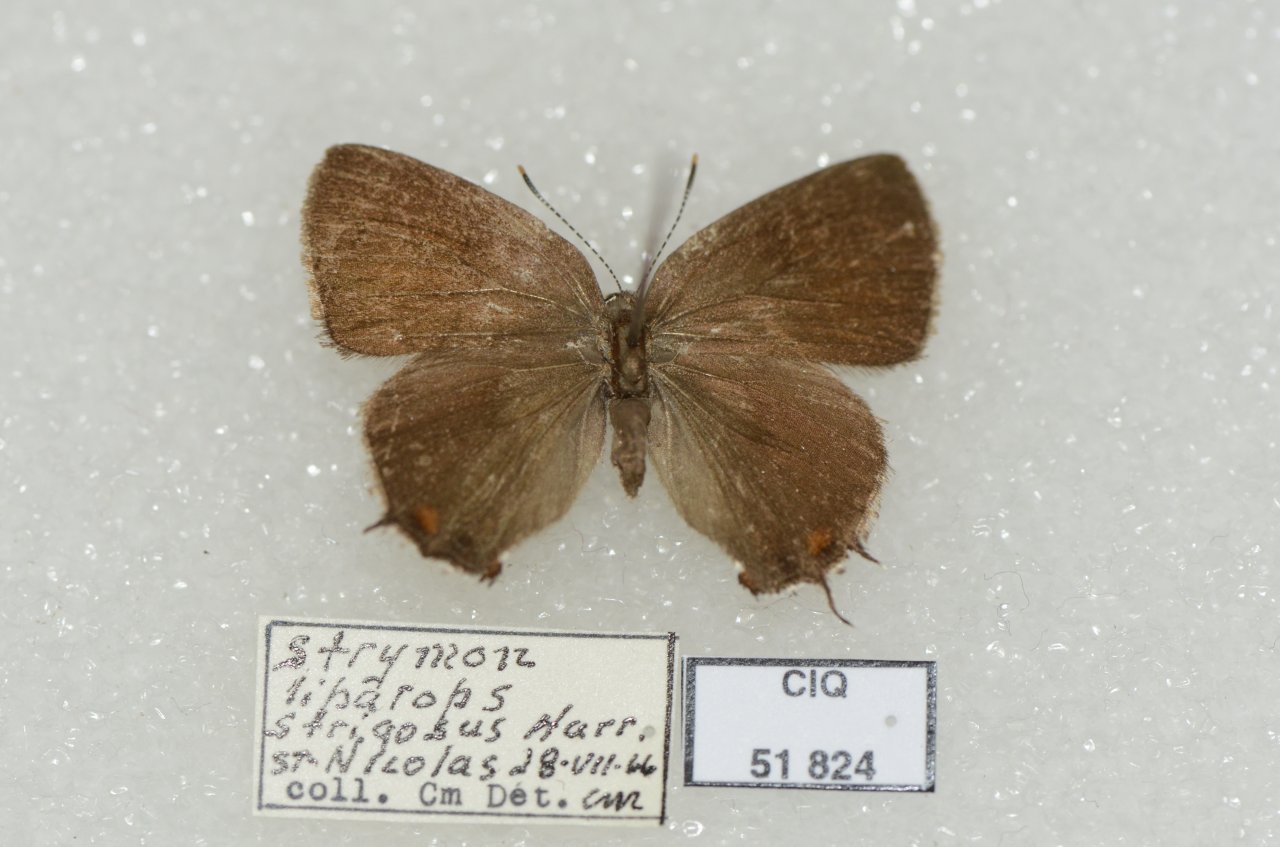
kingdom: Animalia
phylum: Arthropoda
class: Insecta
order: Lepidoptera
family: Lycaenidae
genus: Satyrium
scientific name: Satyrium liparops
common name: Striped Hairstreak
